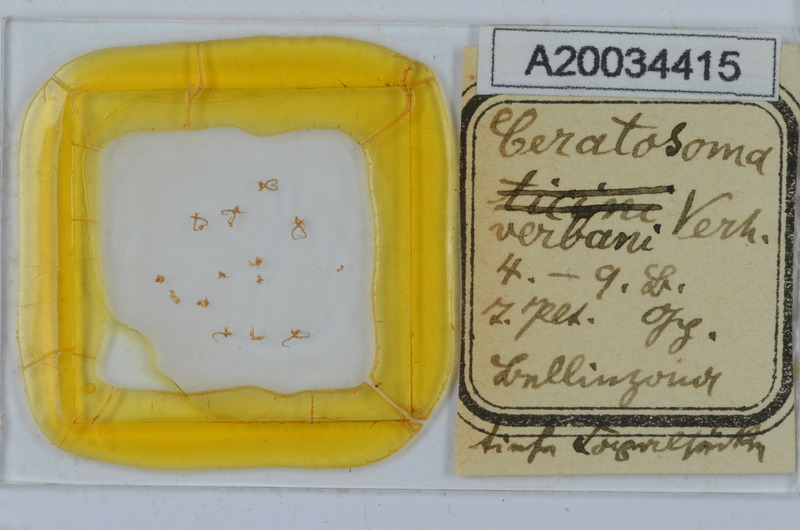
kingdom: Animalia
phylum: Arthropoda
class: Diplopoda
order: Chordeumatida
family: Craspedosomatidae
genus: Bomogona
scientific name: Bomogona helvetica
